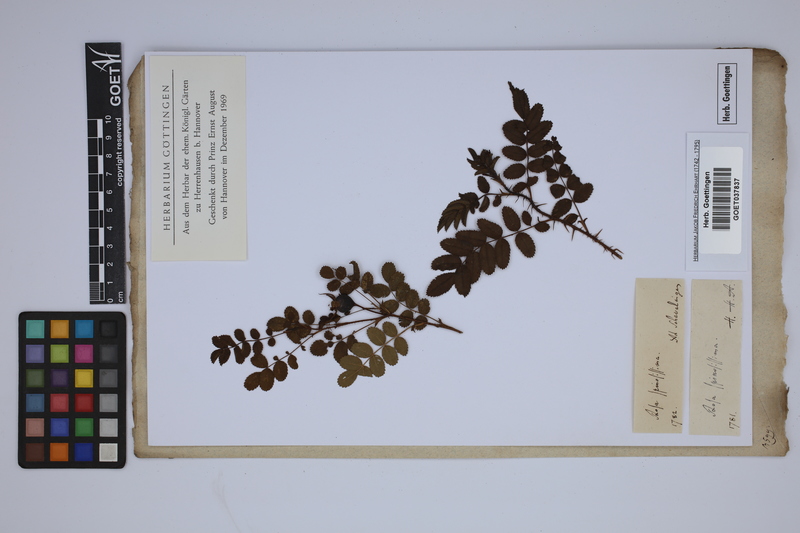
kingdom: Plantae
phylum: Tracheophyta
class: Magnoliopsida
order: Rosales
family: Rosaceae
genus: Rosa
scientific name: Rosa spinosissima
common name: Burnet rose
